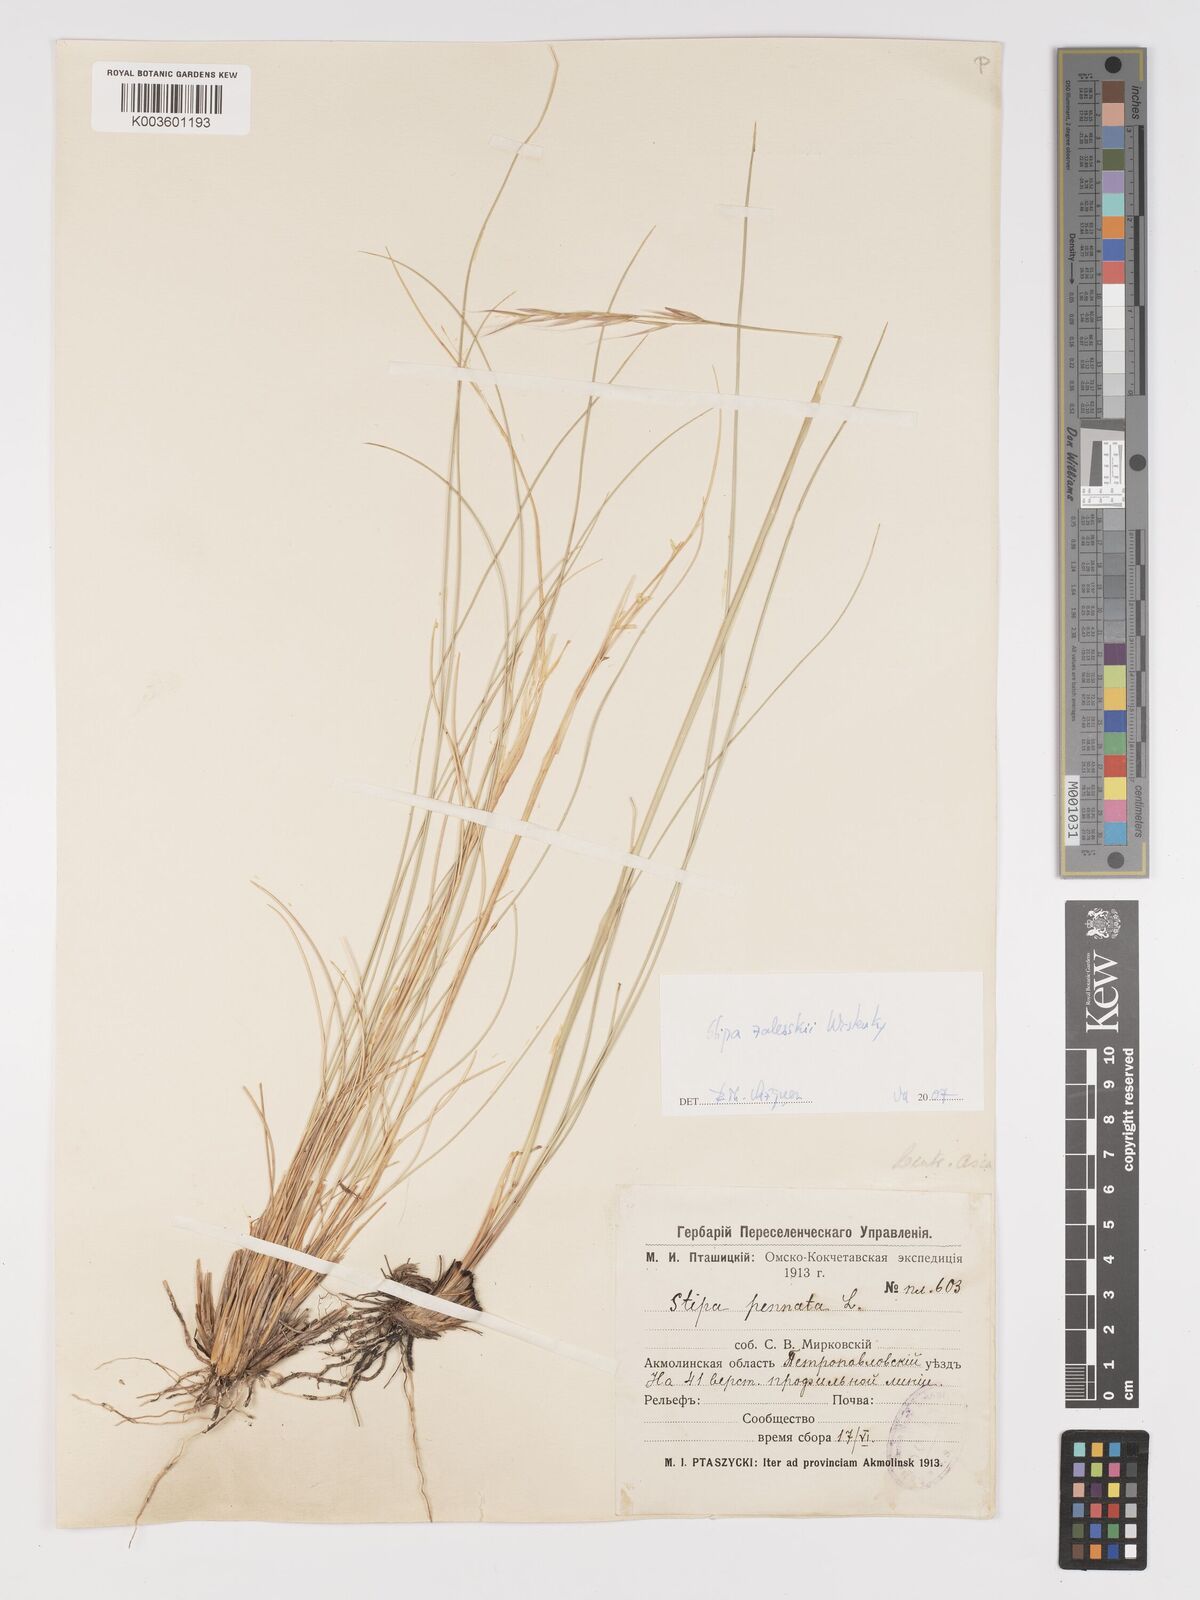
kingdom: Plantae
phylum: Tracheophyta
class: Liliopsida
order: Poales
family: Poaceae
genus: Stipa
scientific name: Stipa
